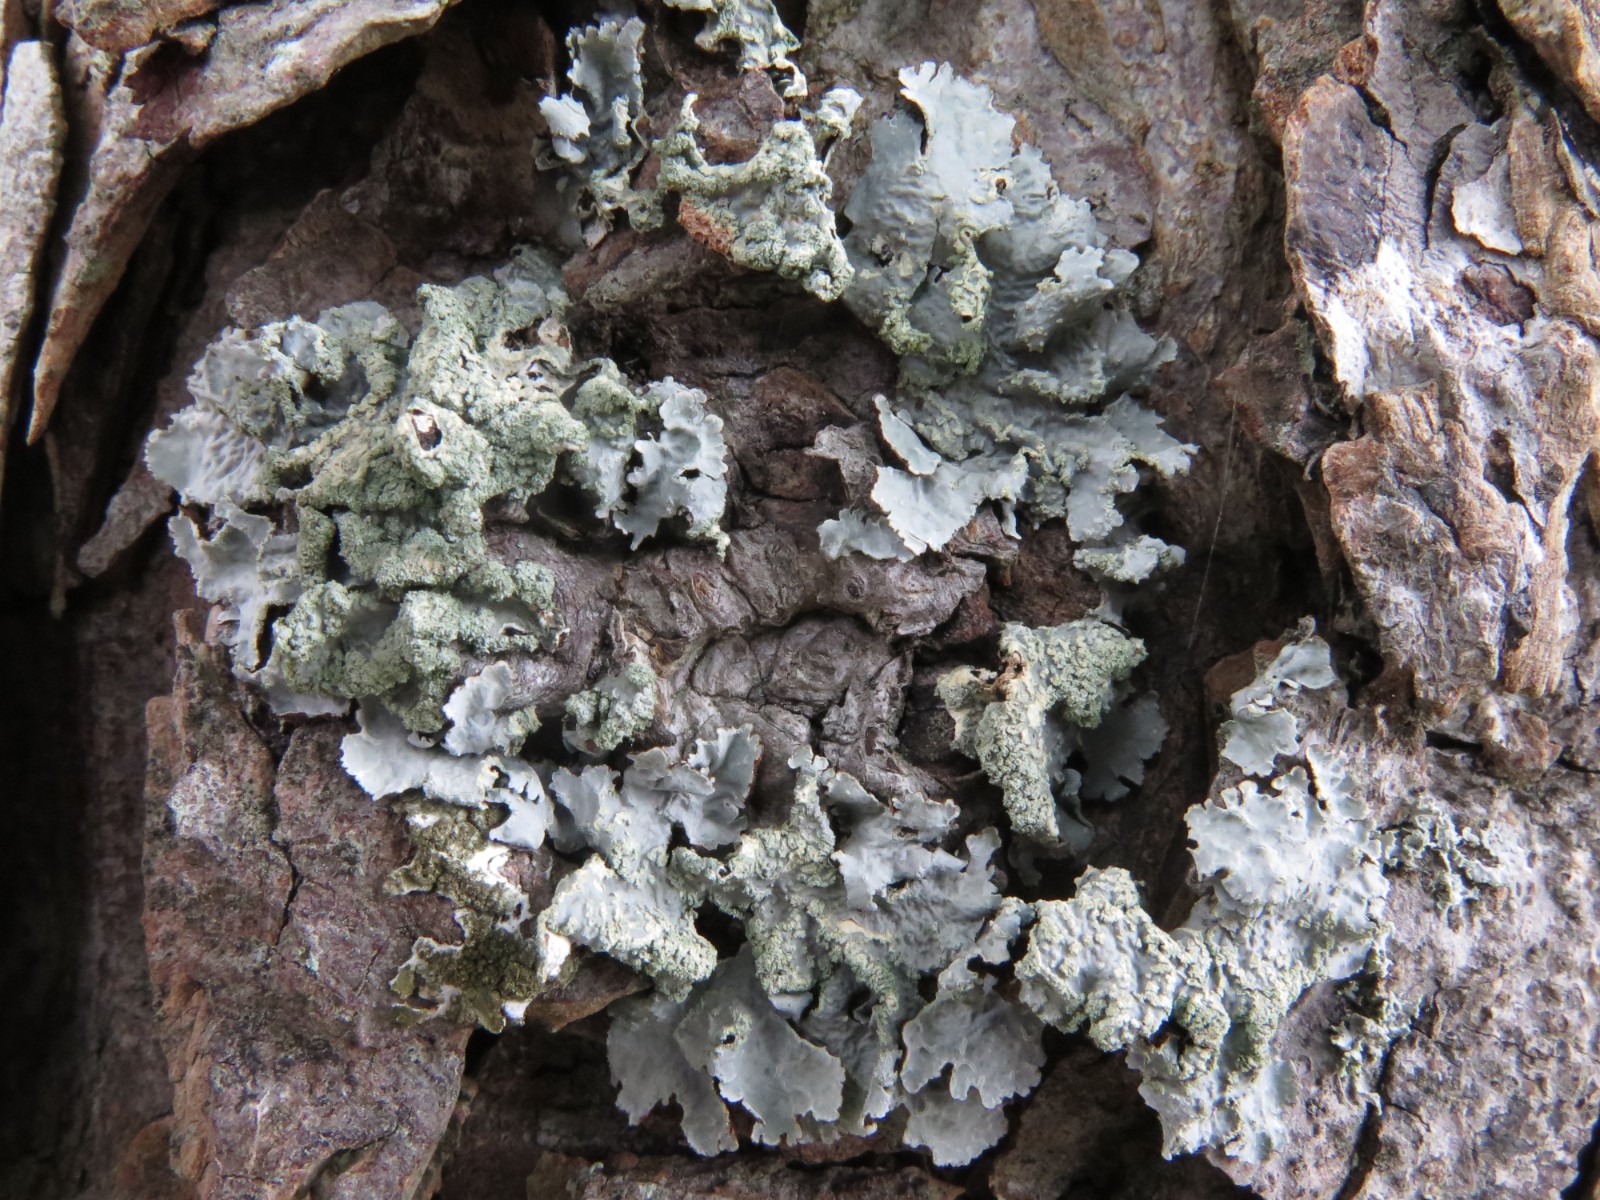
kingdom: Fungi
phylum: Ascomycota
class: Lecanoromycetes
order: Lecanorales
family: Parmeliaceae
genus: Parmelia
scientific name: Parmelia sulcata
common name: rynket skållav
